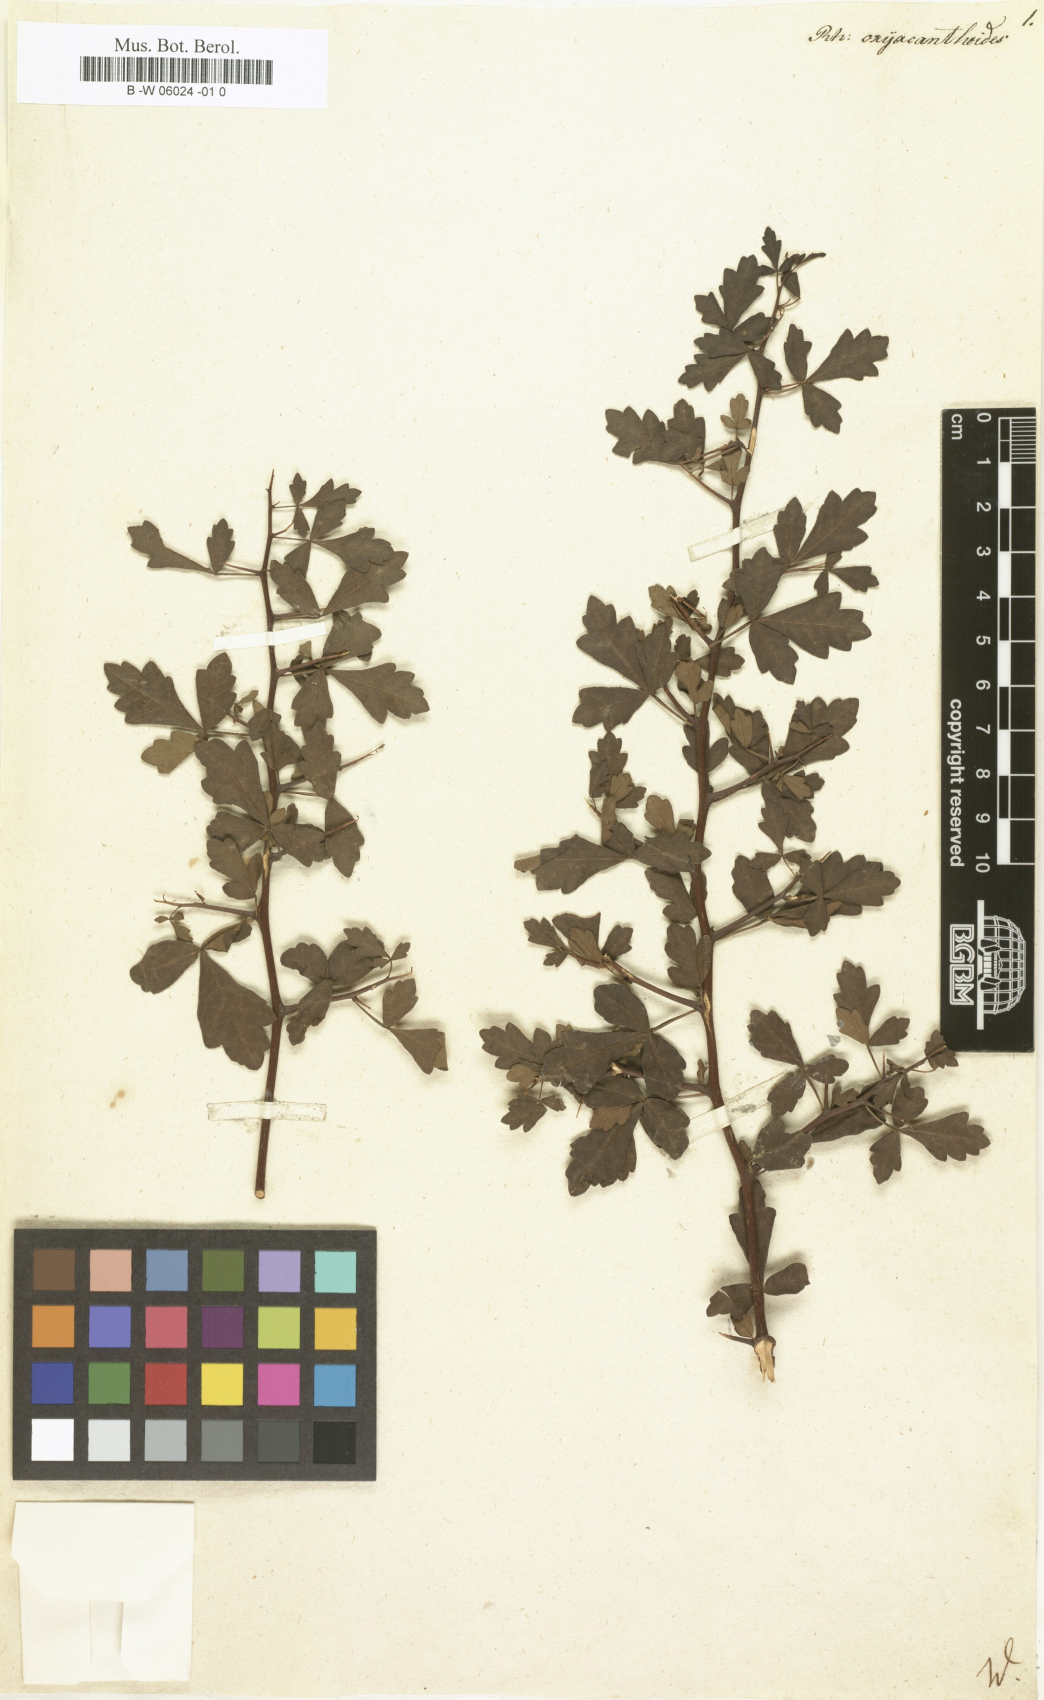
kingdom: Plantae
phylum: Tracheophyta
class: Magnoliopsida
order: Sapindales
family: Anacardiaceae
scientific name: Anacardiaceae
